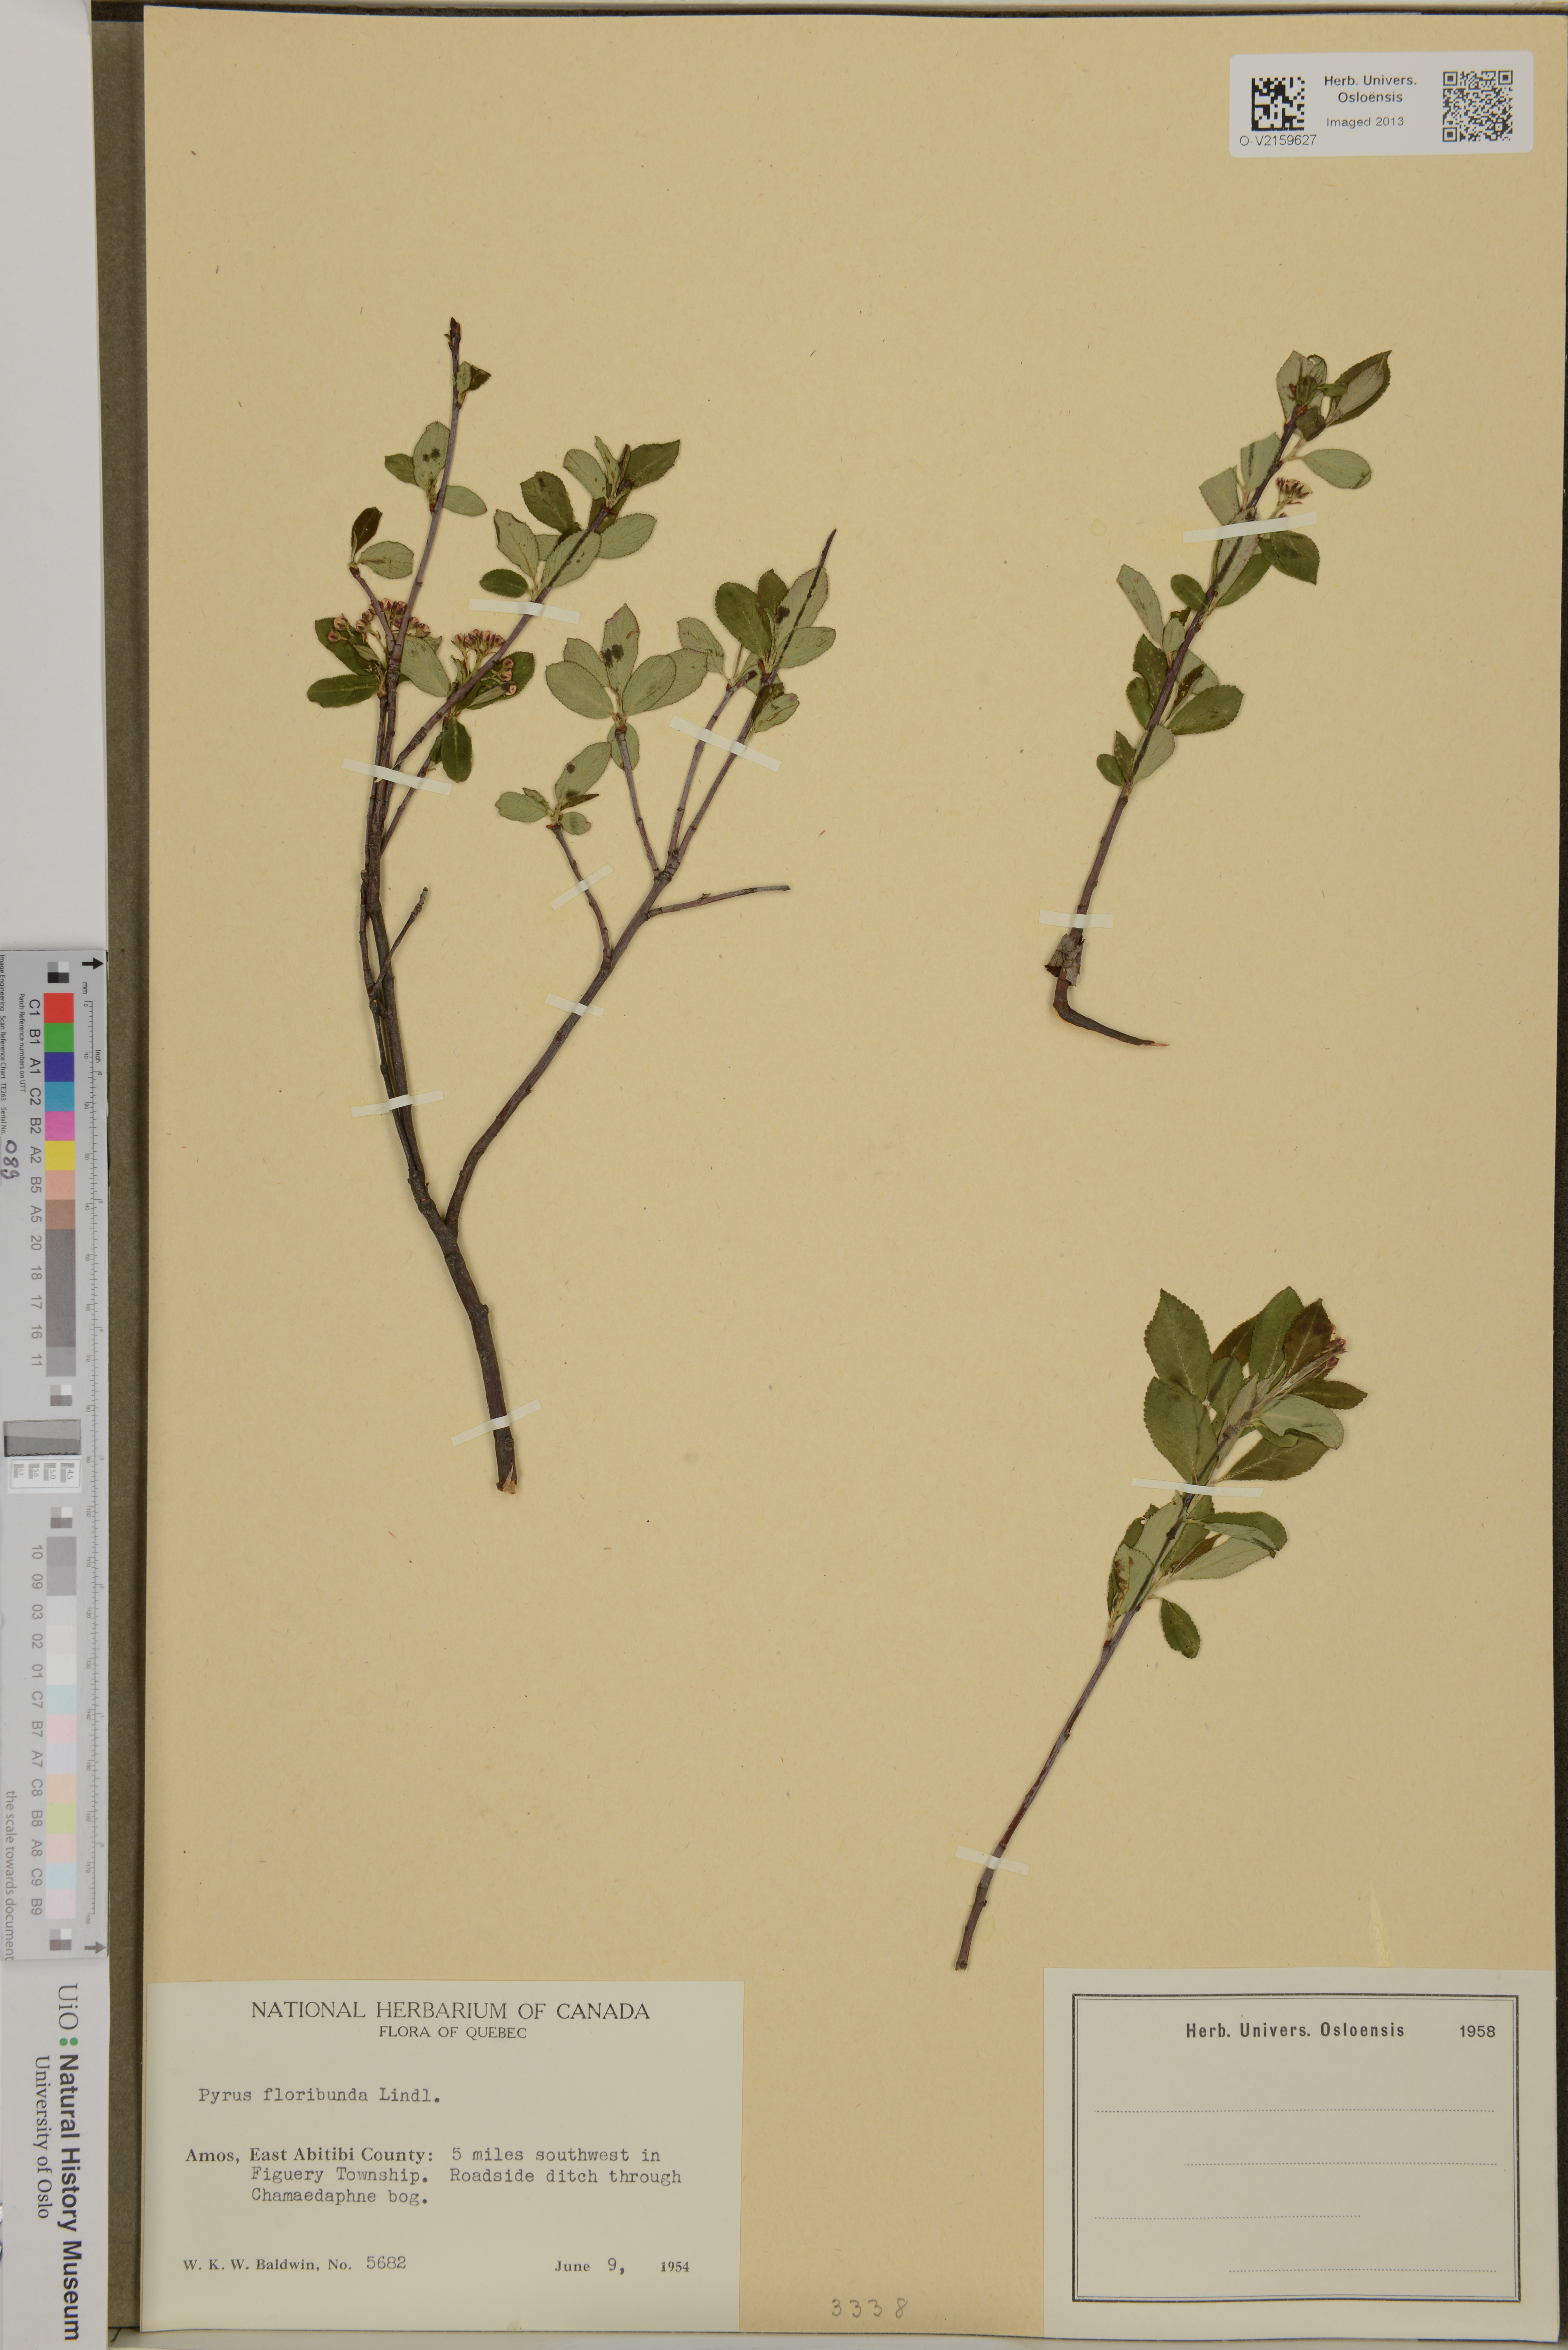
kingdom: Plantae
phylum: Tracheophyta
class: Magnoliopsida
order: Rosales
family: Rosaceae
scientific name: Rosaceae
